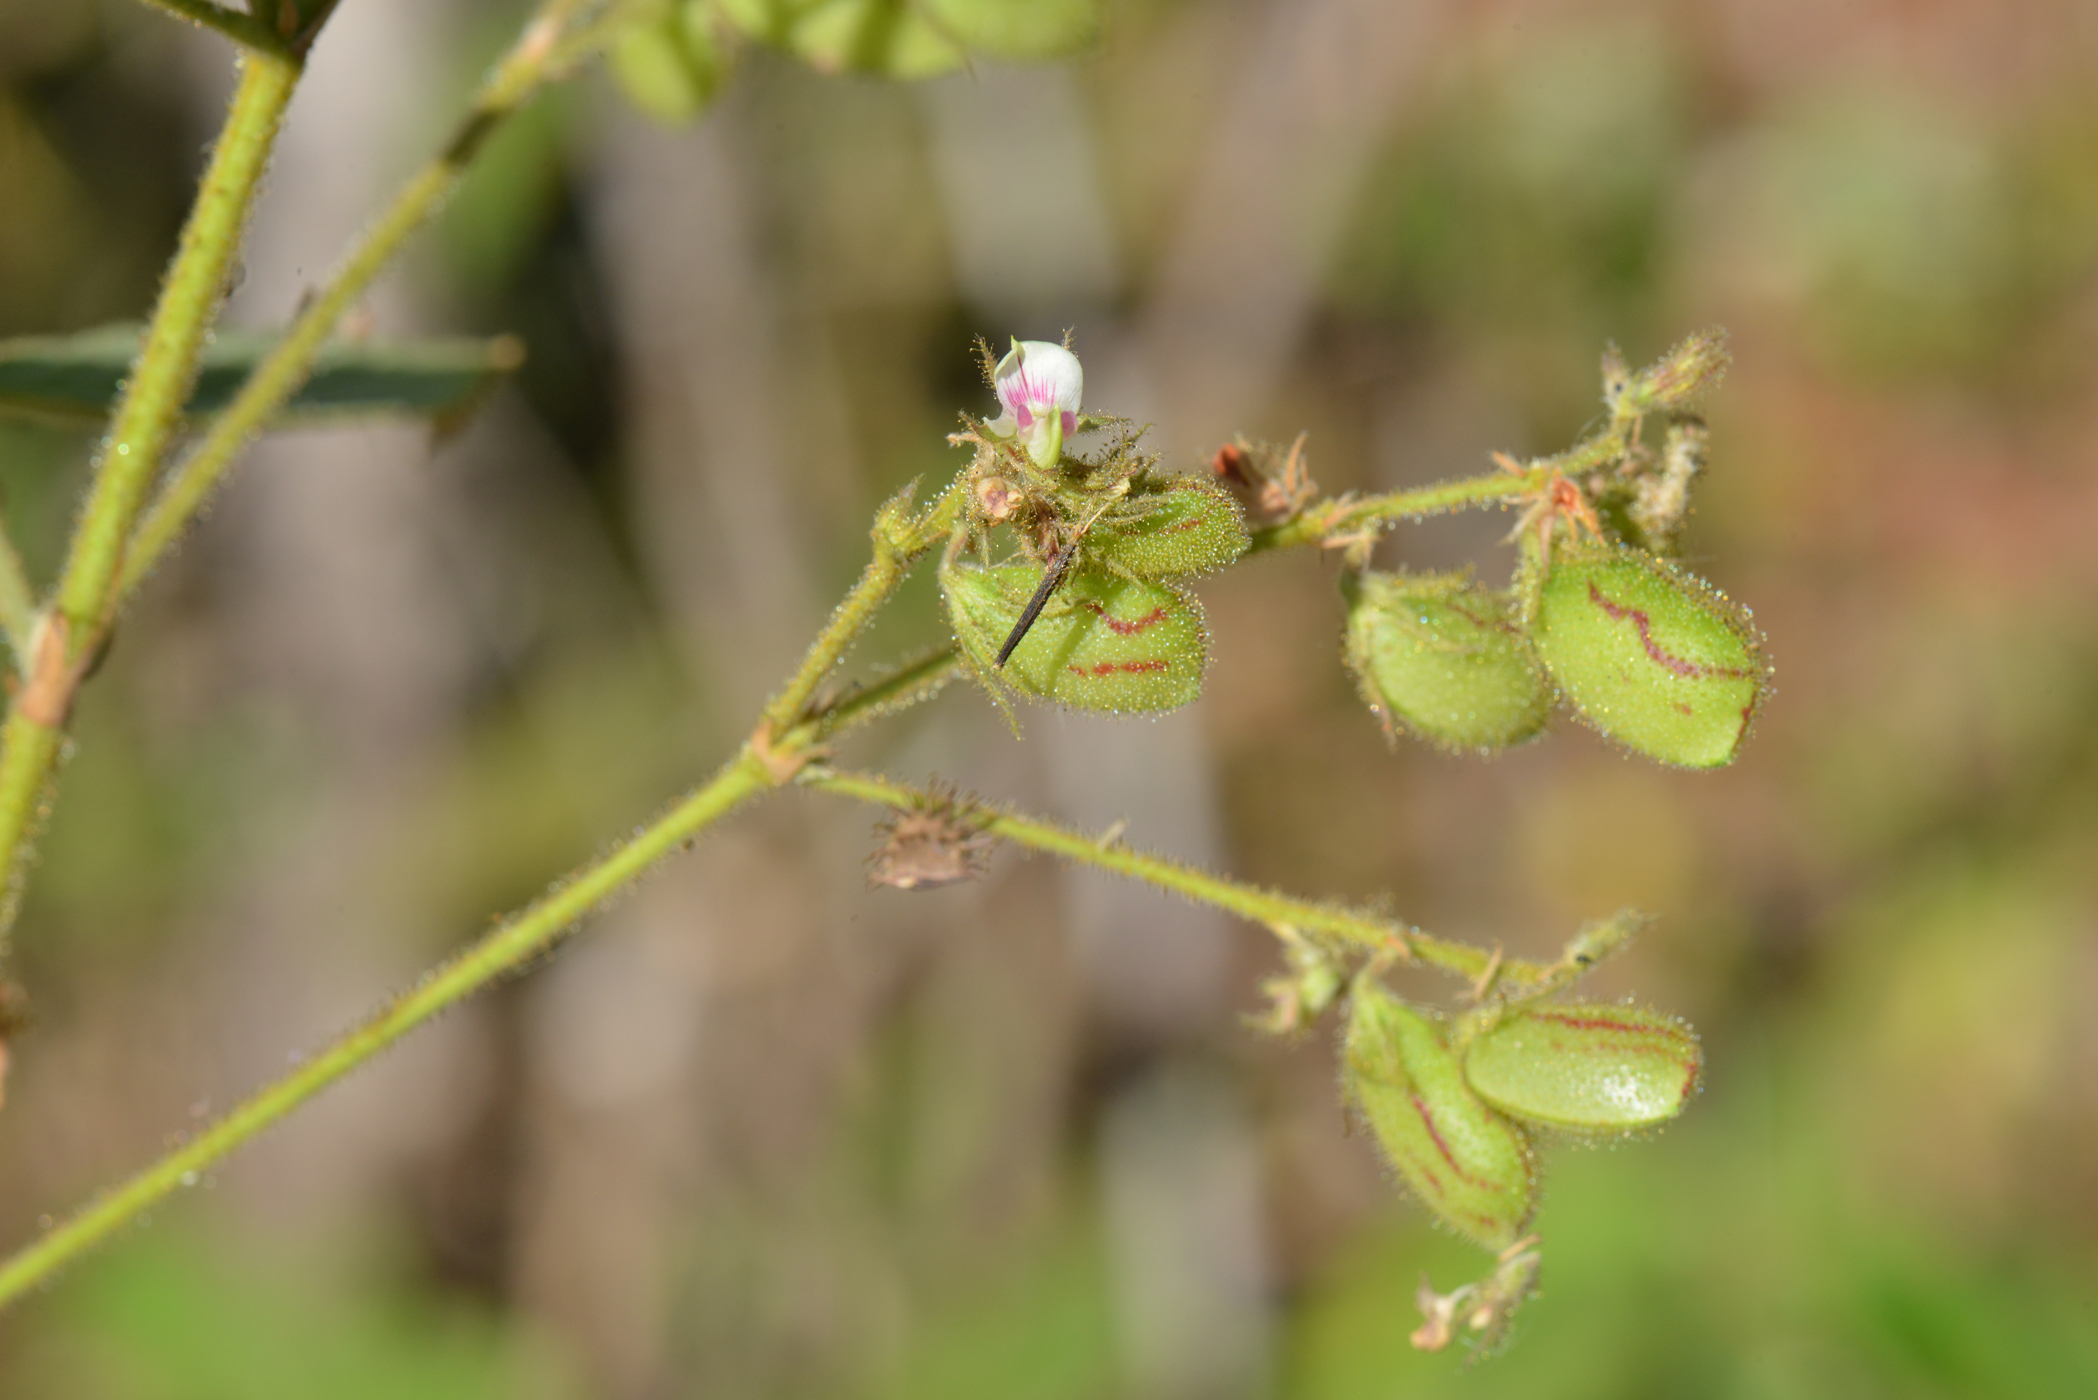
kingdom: Plantae
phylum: Tracheophyta
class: Magnoliopsida
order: Fabales
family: Fabaceae
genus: Flemingia
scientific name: Flemingia lineata
